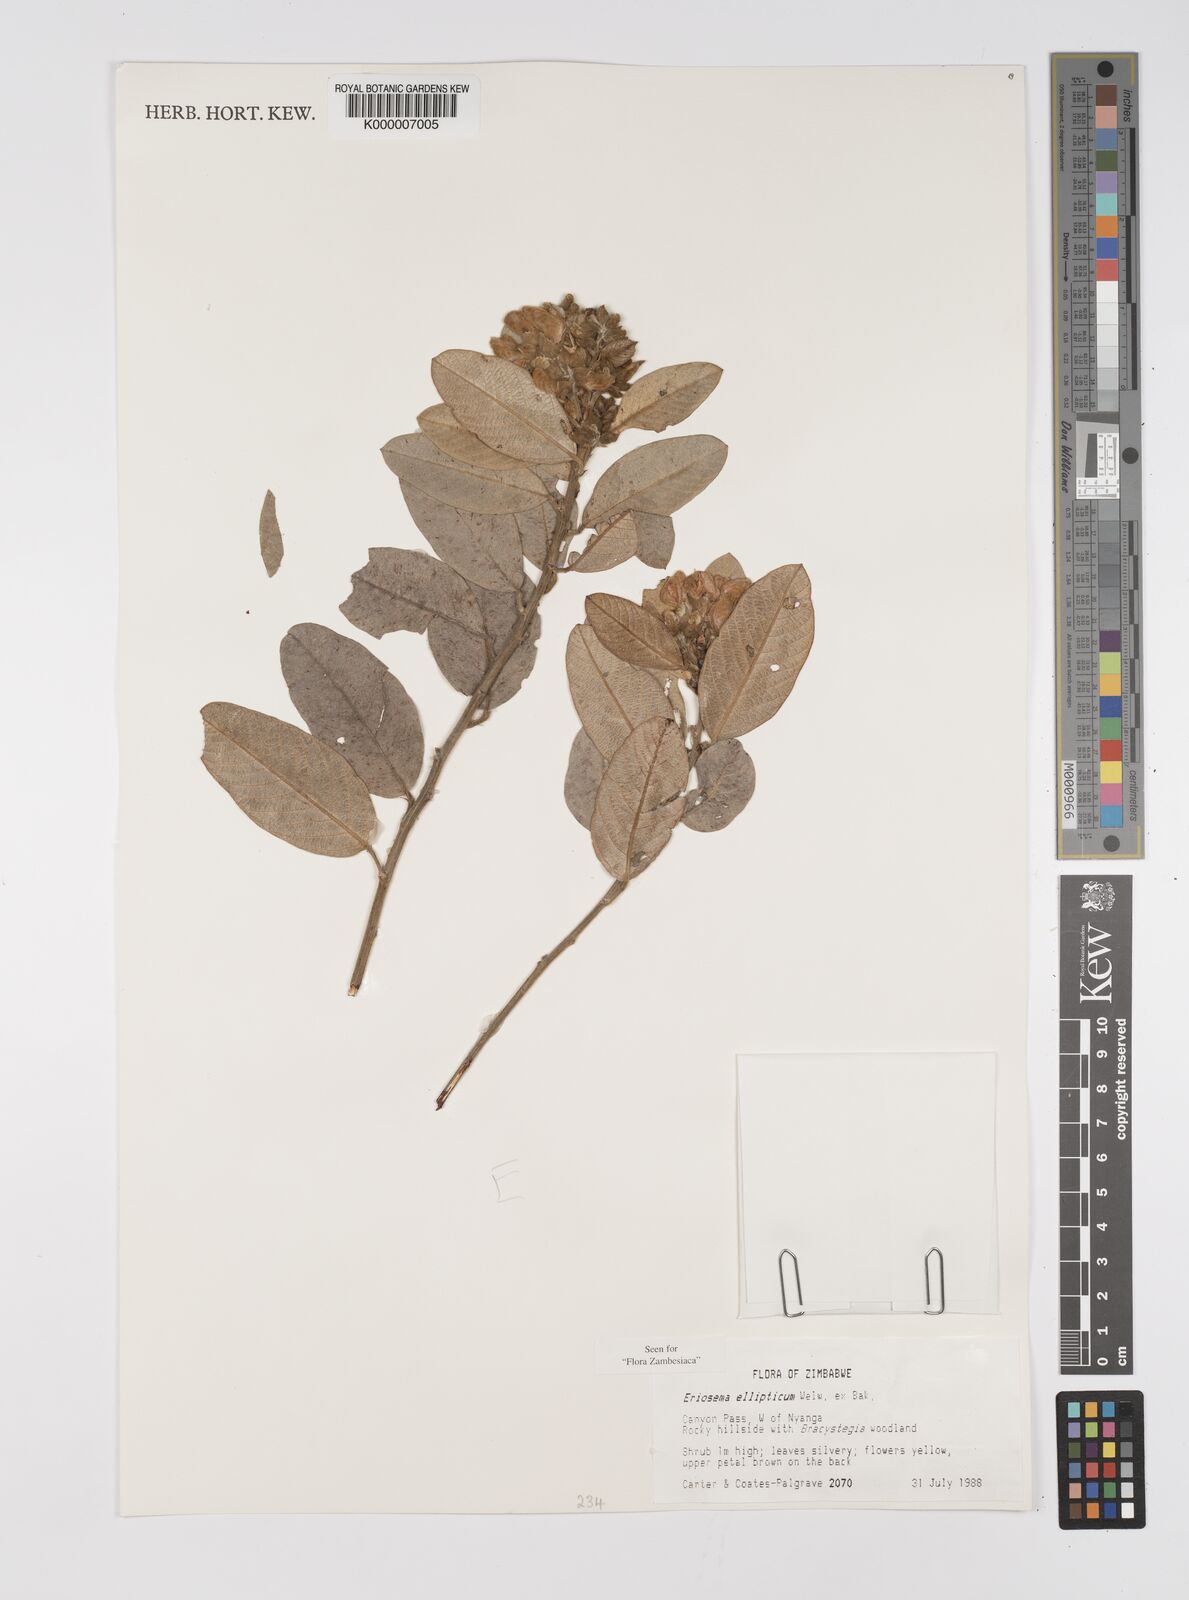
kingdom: Plantae
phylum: Tracheophyta
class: Magnoliopsida
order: Fabales
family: Fabaceae
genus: Eriosema
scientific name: Eriosema ellipticum
